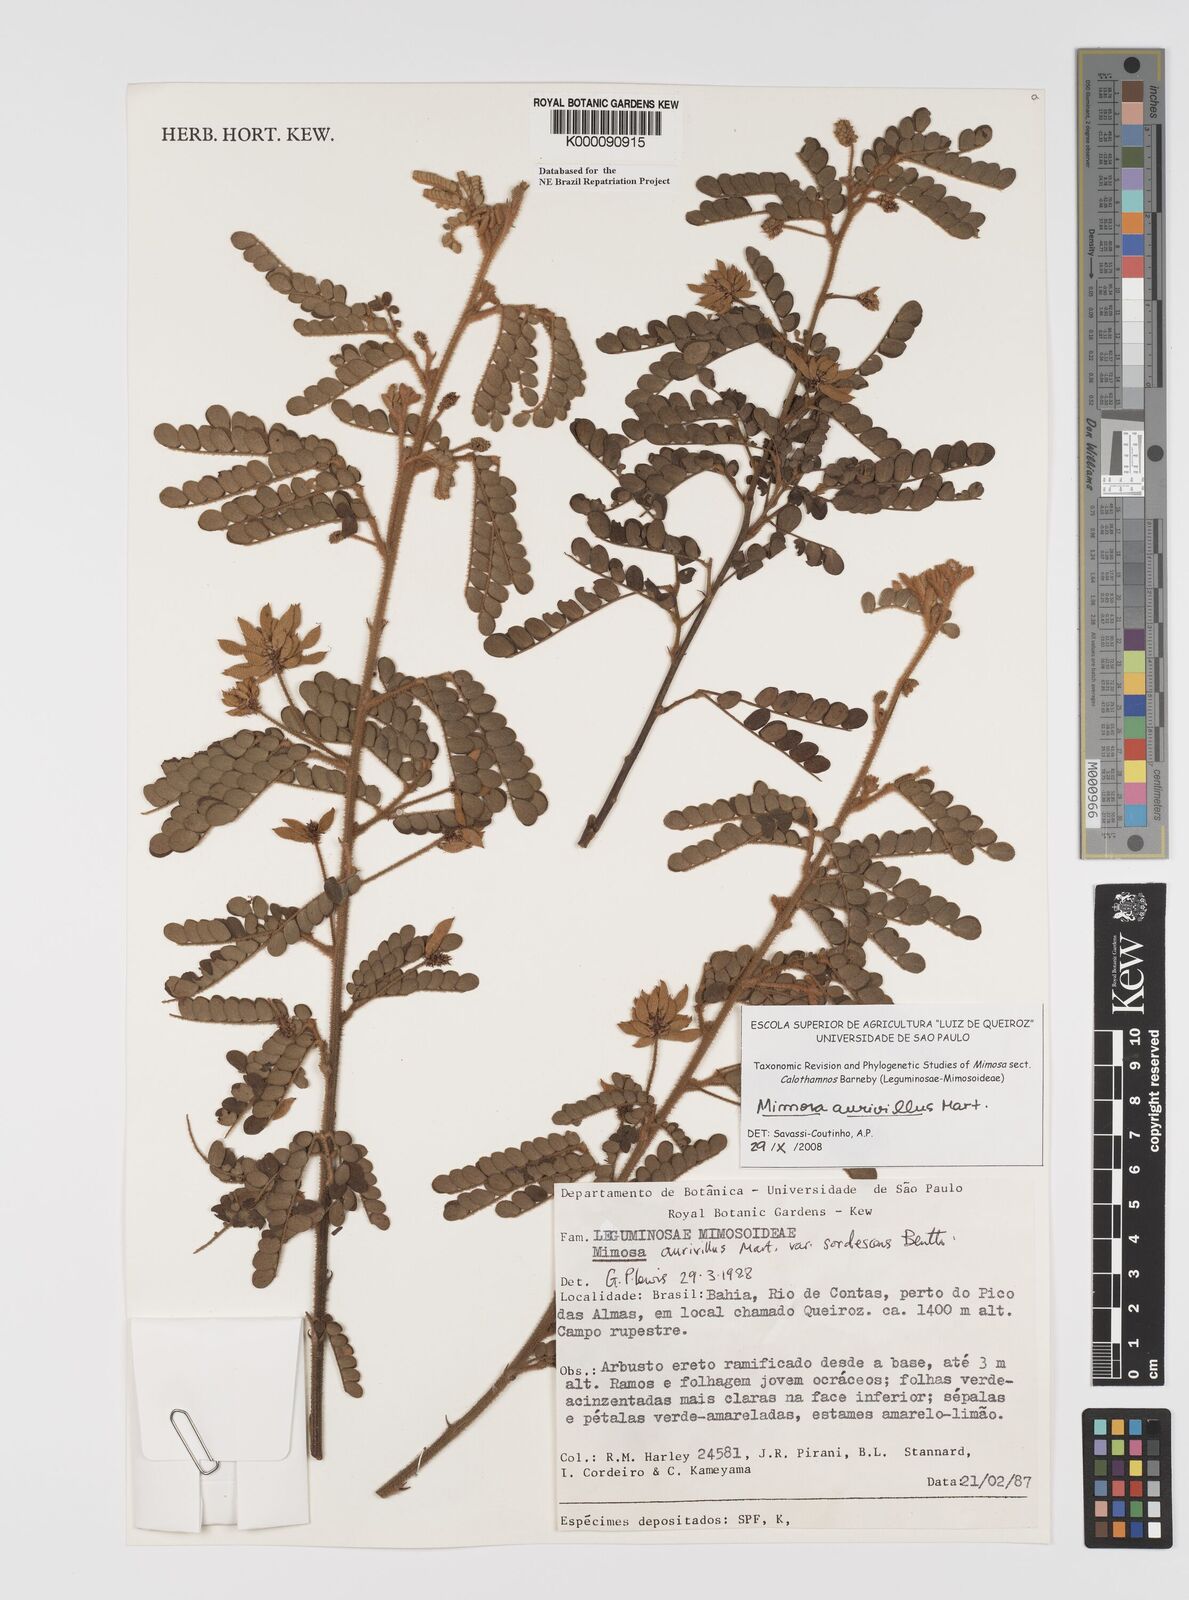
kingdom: Plantae
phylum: Tracheophyta
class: Magnoliopsida
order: Fabales
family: Fabaceae
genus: Mimosa
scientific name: Mimosa aurivillus
